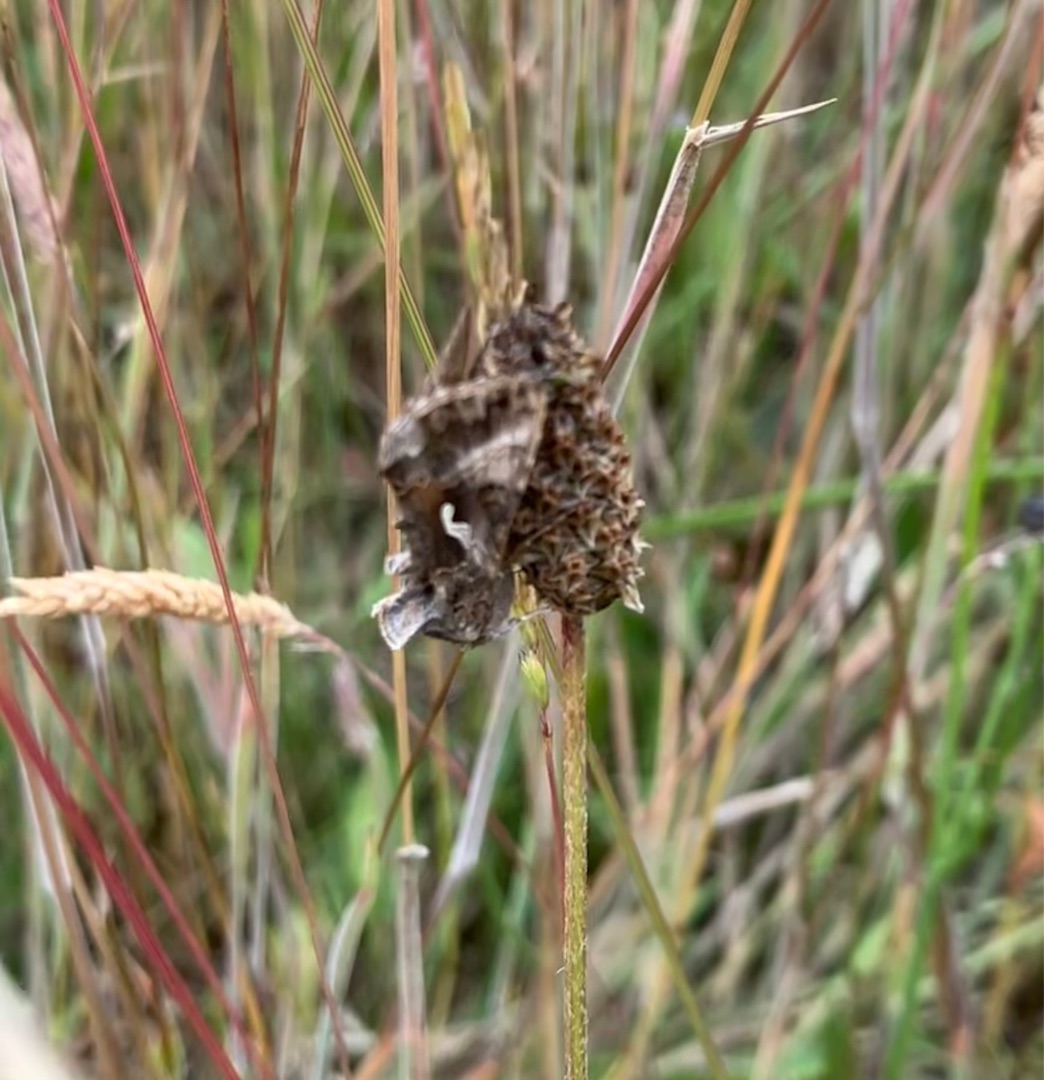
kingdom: Animalia
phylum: Arthropoda
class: Insecta
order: Lepidoptera
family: Noctuidae
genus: Autographa
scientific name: Autographa gamma
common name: Gammaugle
